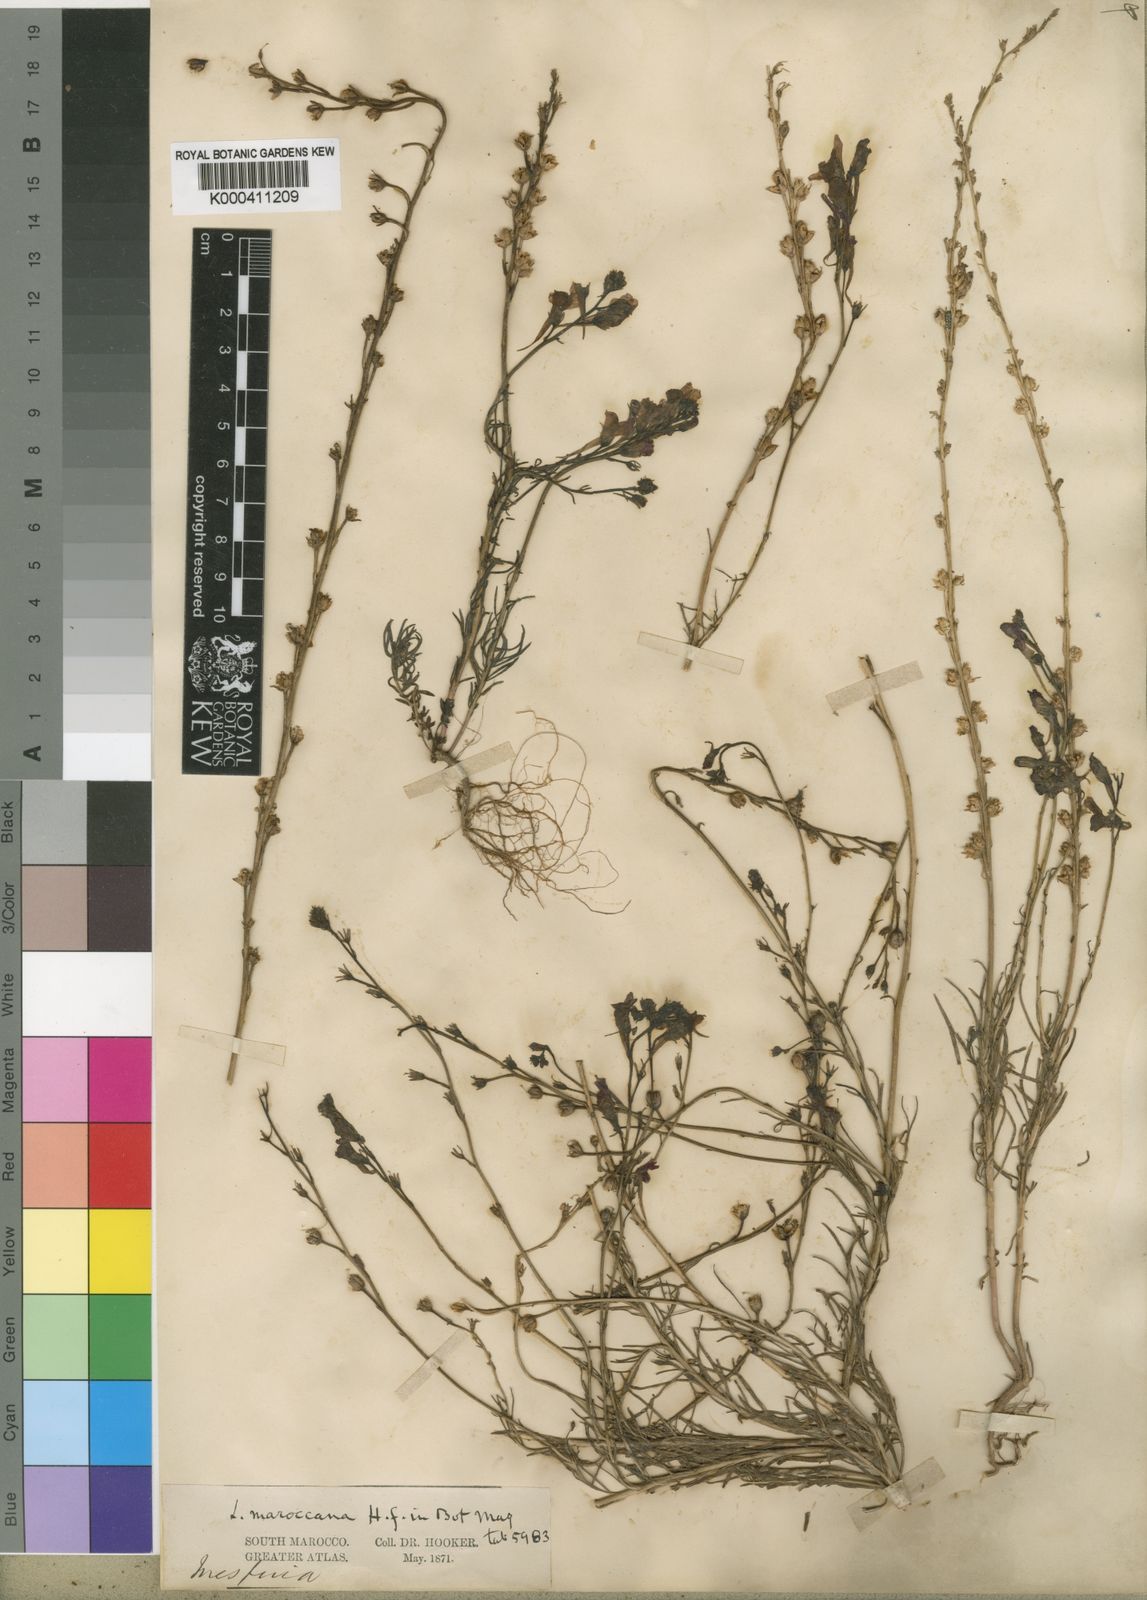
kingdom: Plantae
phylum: Tracheophyta
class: Magnoliopsida
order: Lamiales
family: Plantaginaceae
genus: Linaria
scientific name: Linaria maroccana
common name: Moroccan toadflax
